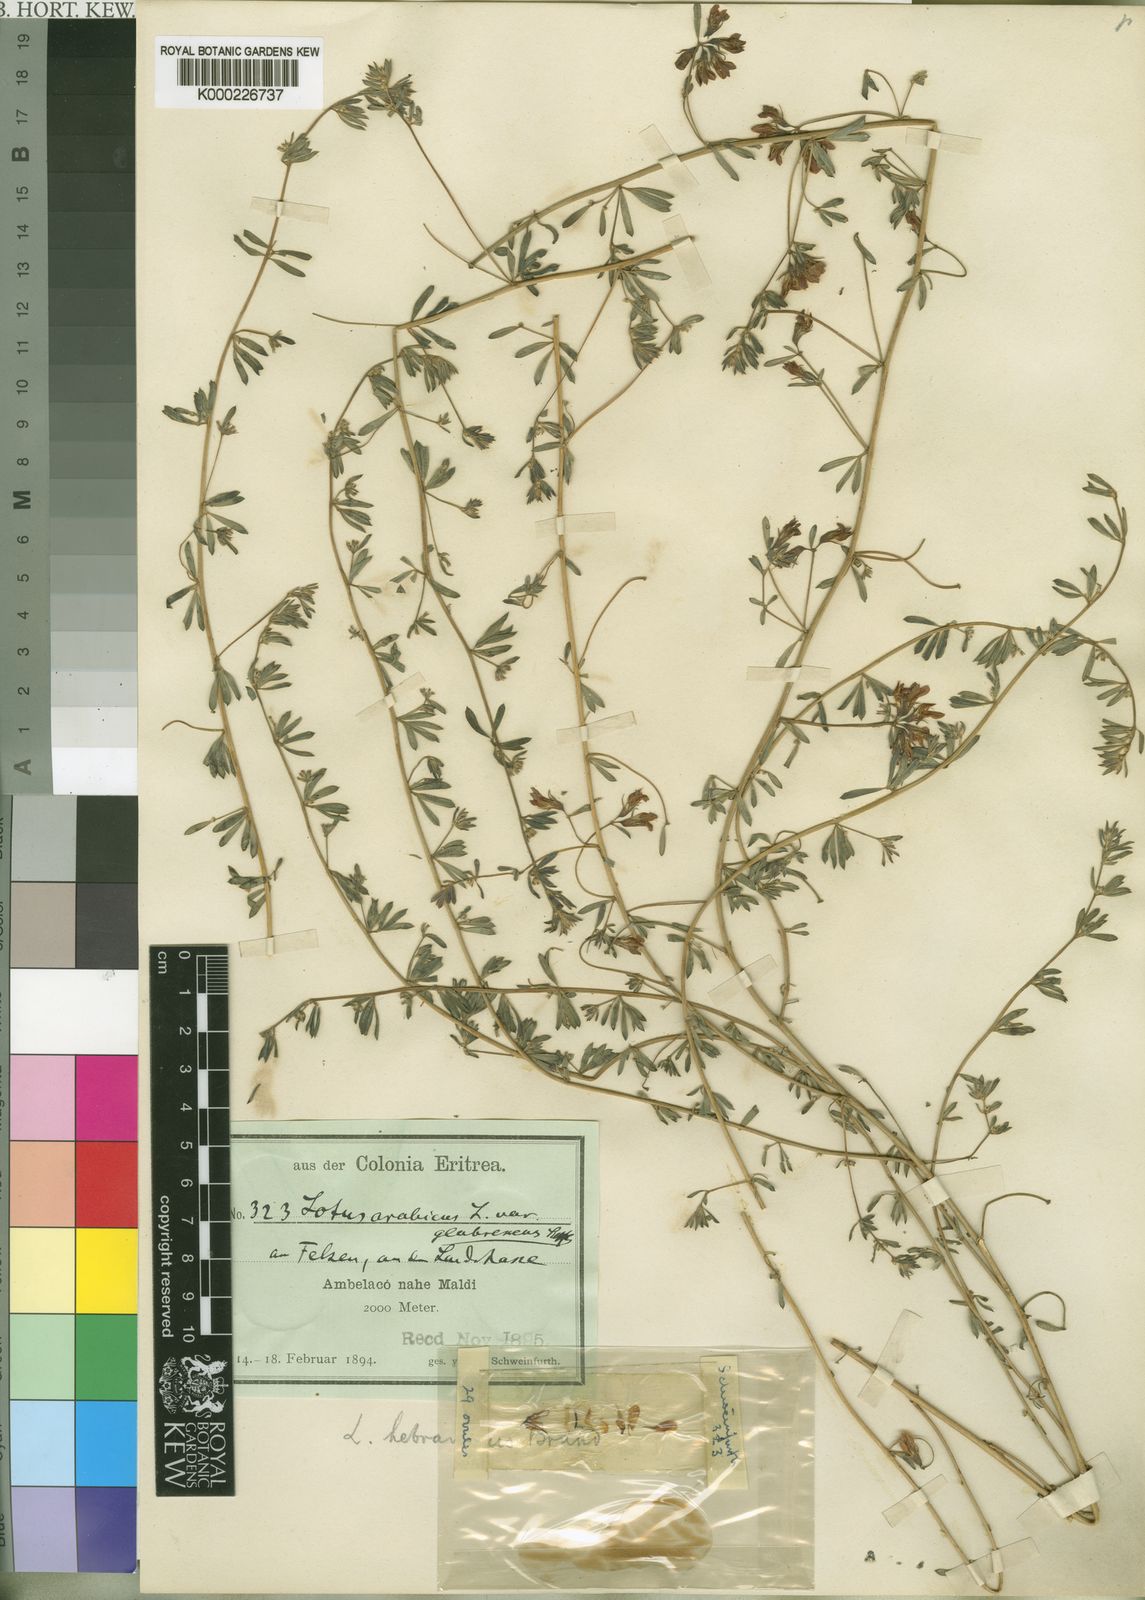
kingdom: Plantae
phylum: Tracheophyta
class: Magnoliopsida
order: Fabales
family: Fabaceae
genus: Lotus
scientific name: Lotus lalambensis
